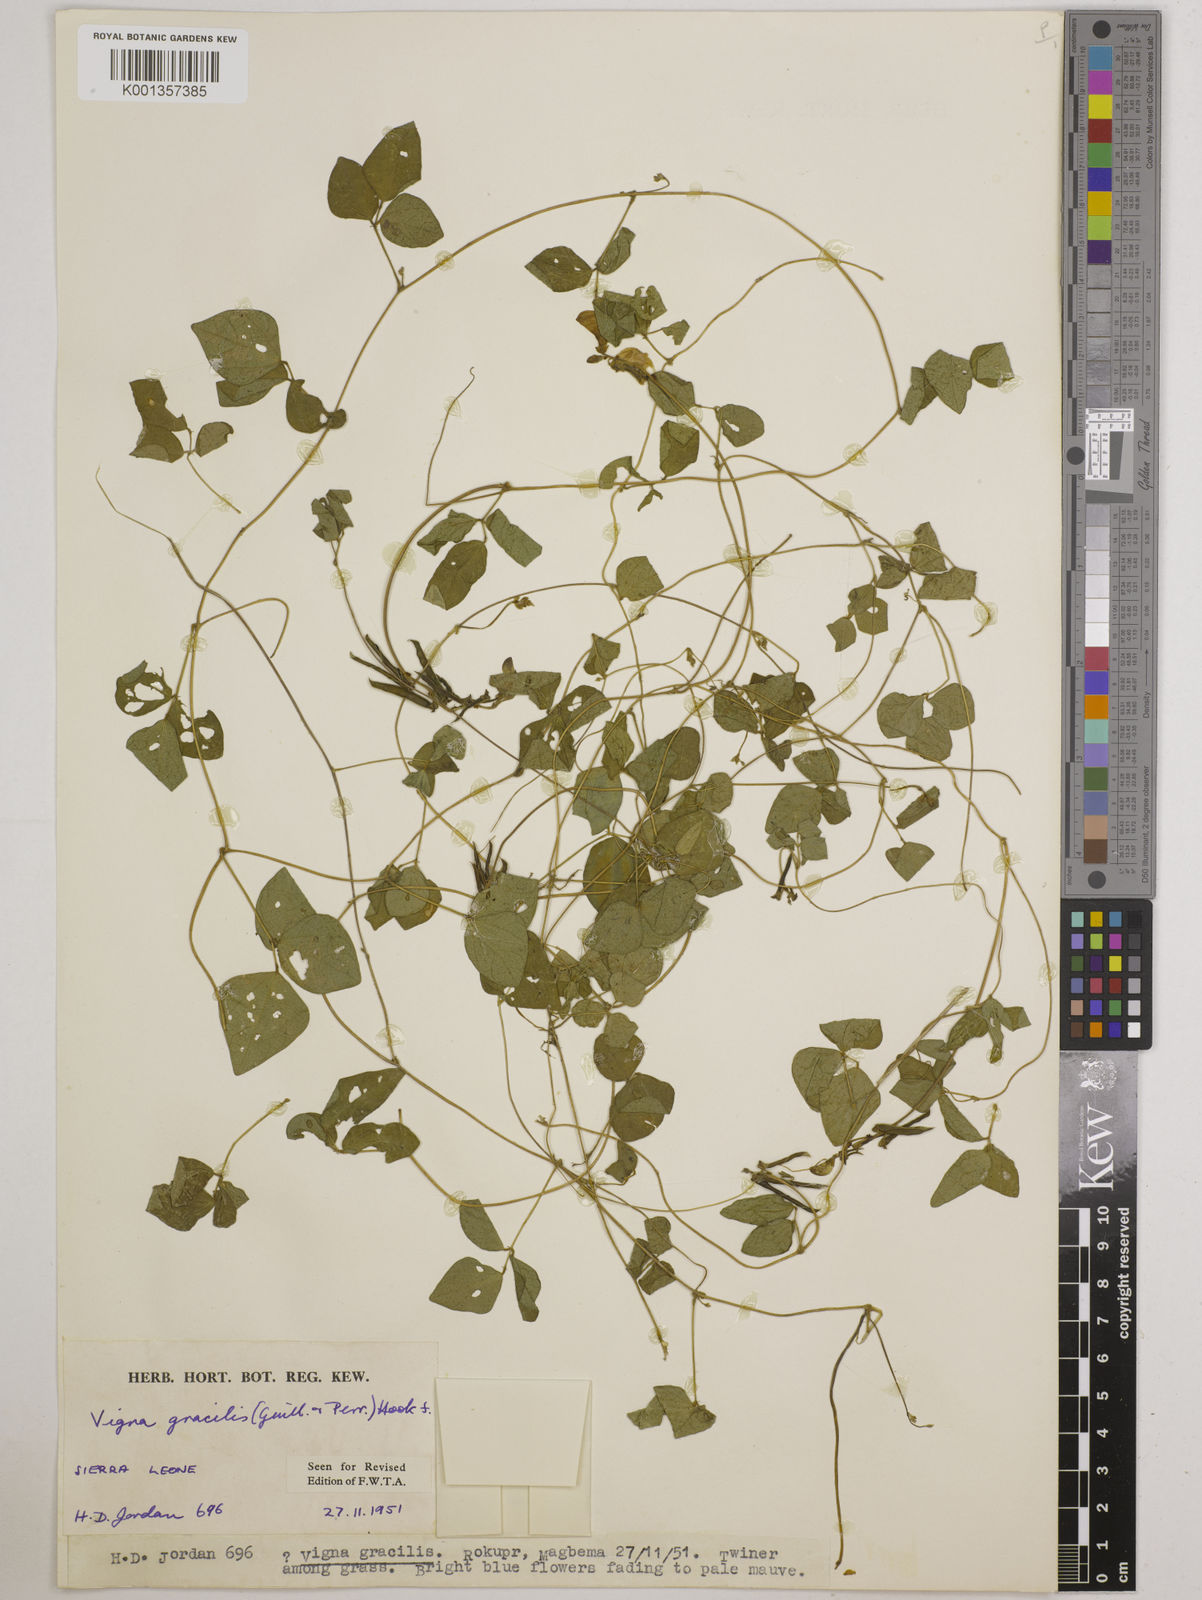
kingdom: Plantae
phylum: Tracheophyta
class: Magnoliopsida
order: Fabales
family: Fabaceae
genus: Vigna
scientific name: Vigna gracilis
